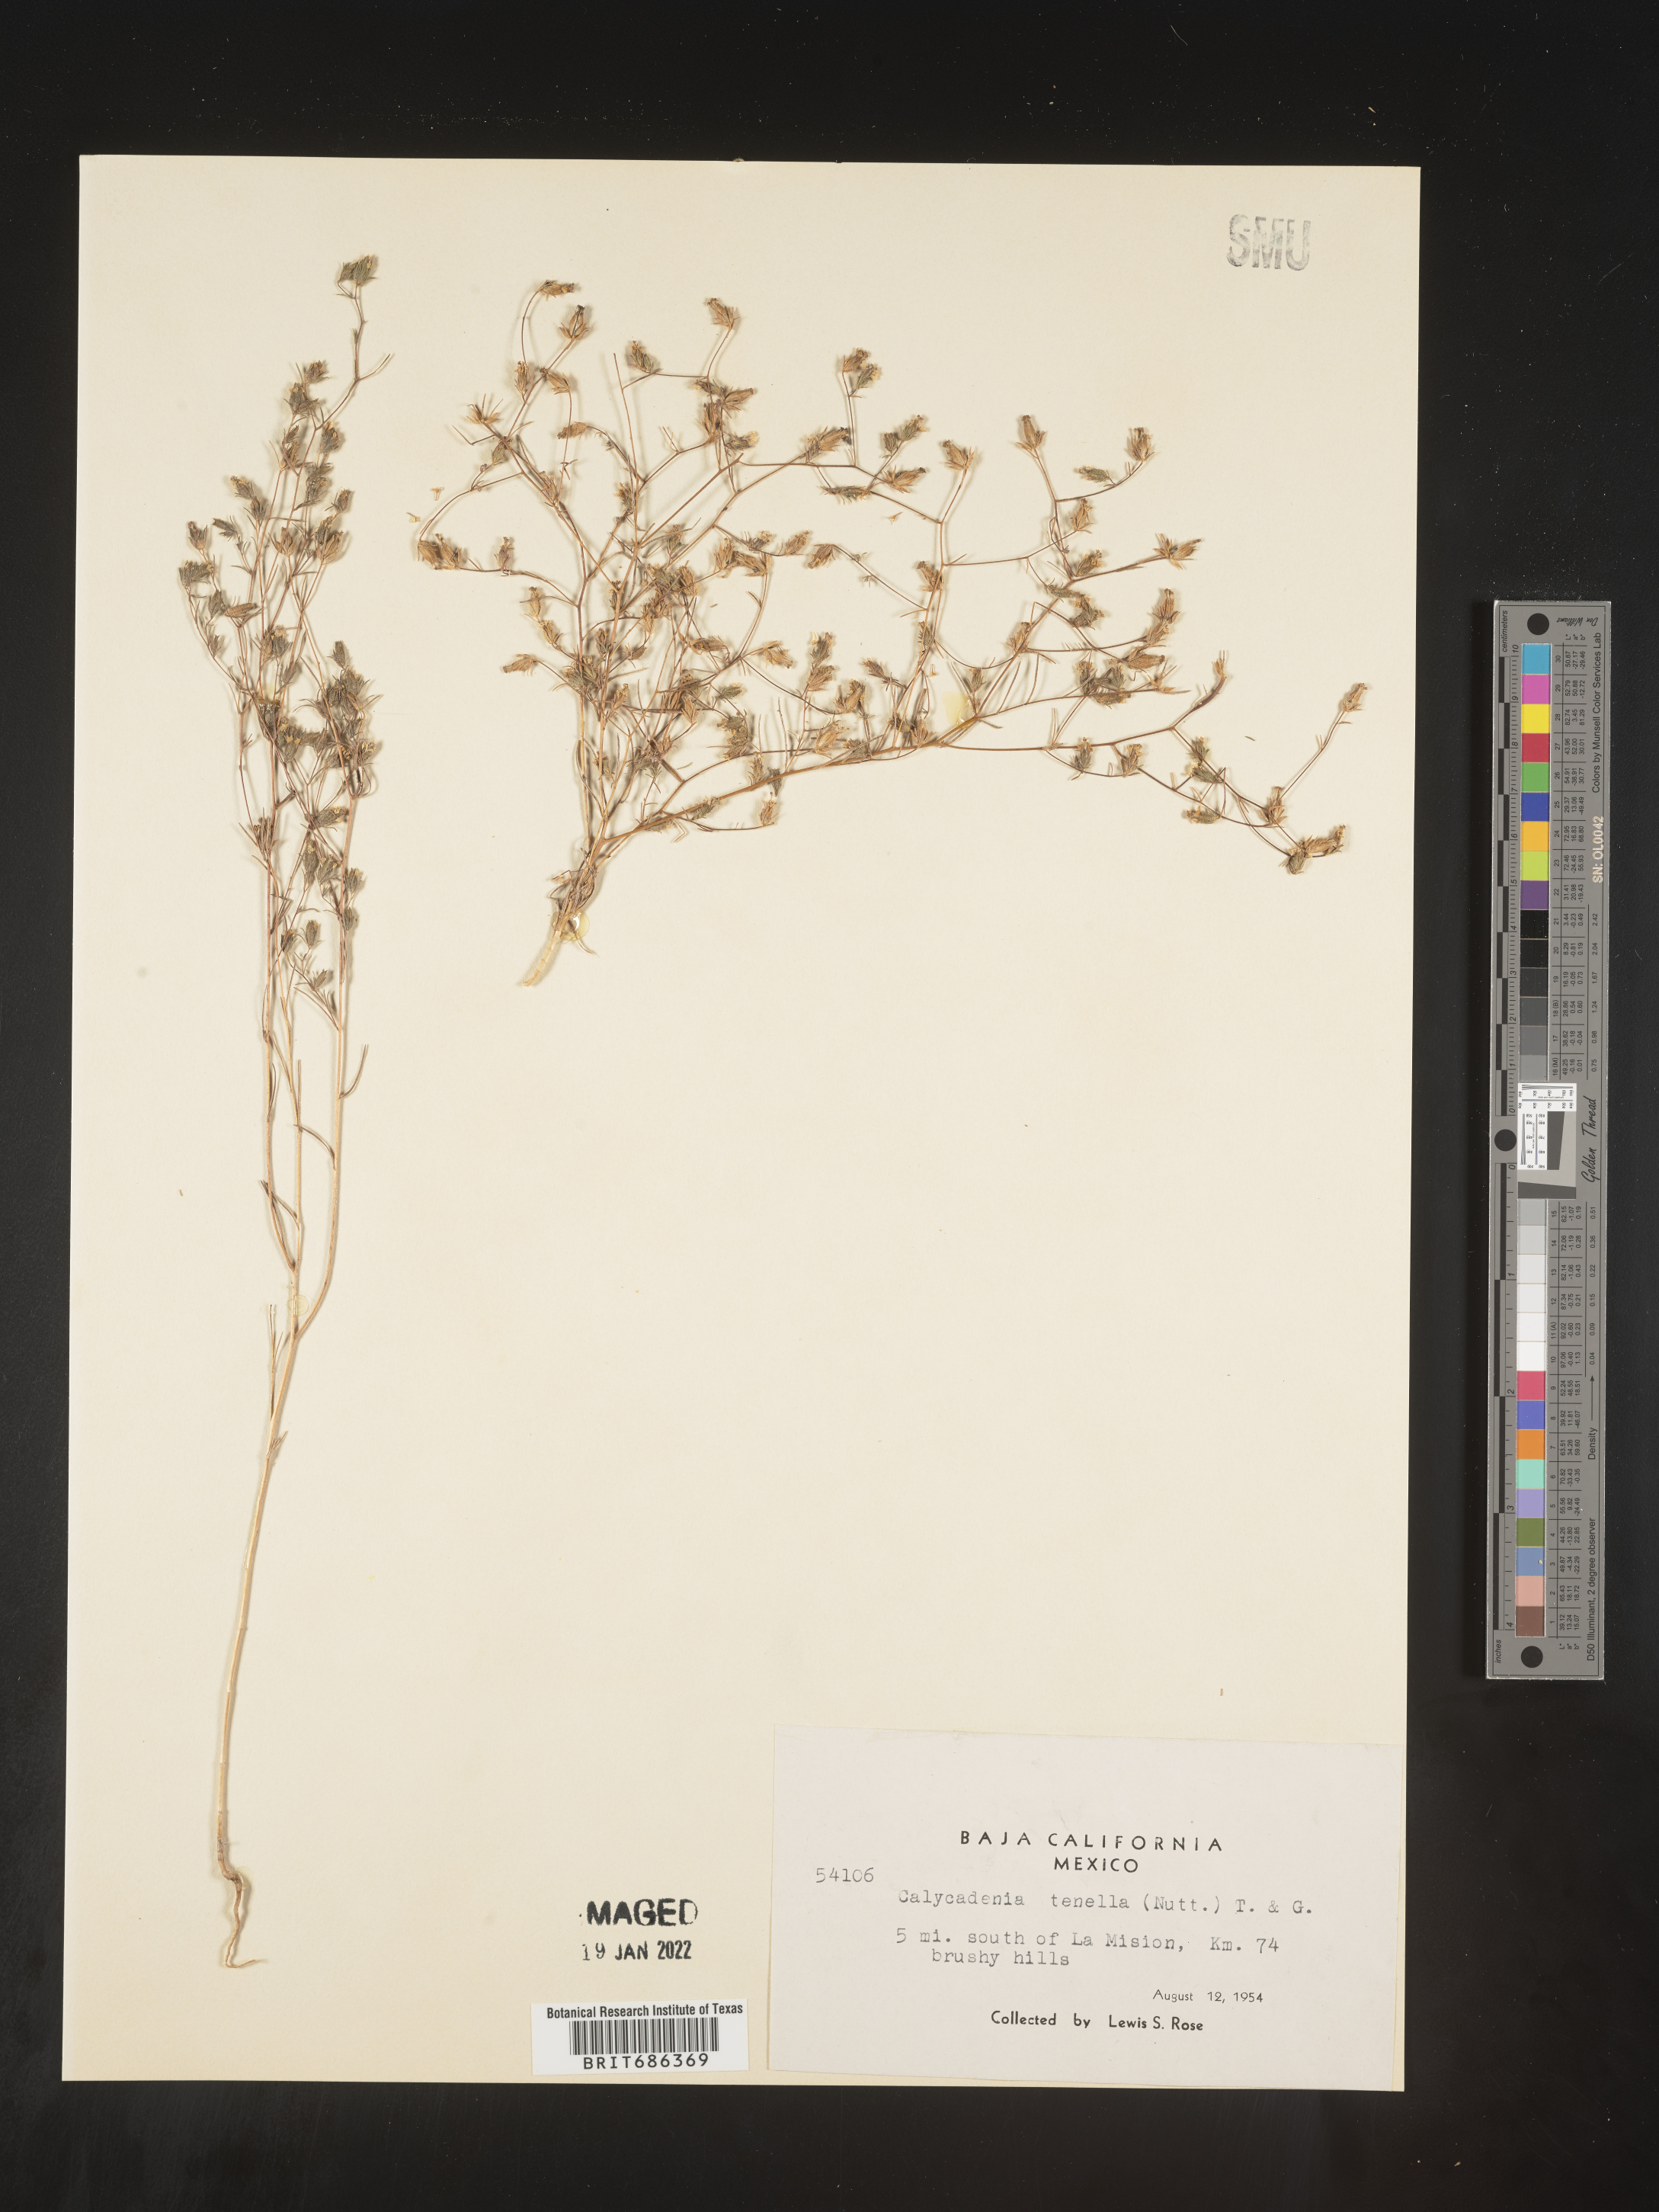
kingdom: Plantae
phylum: Tracheophyta
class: Magnoliopsida
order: Asterales
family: Asteraceae
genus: Calycadenia
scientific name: Calycadenia
